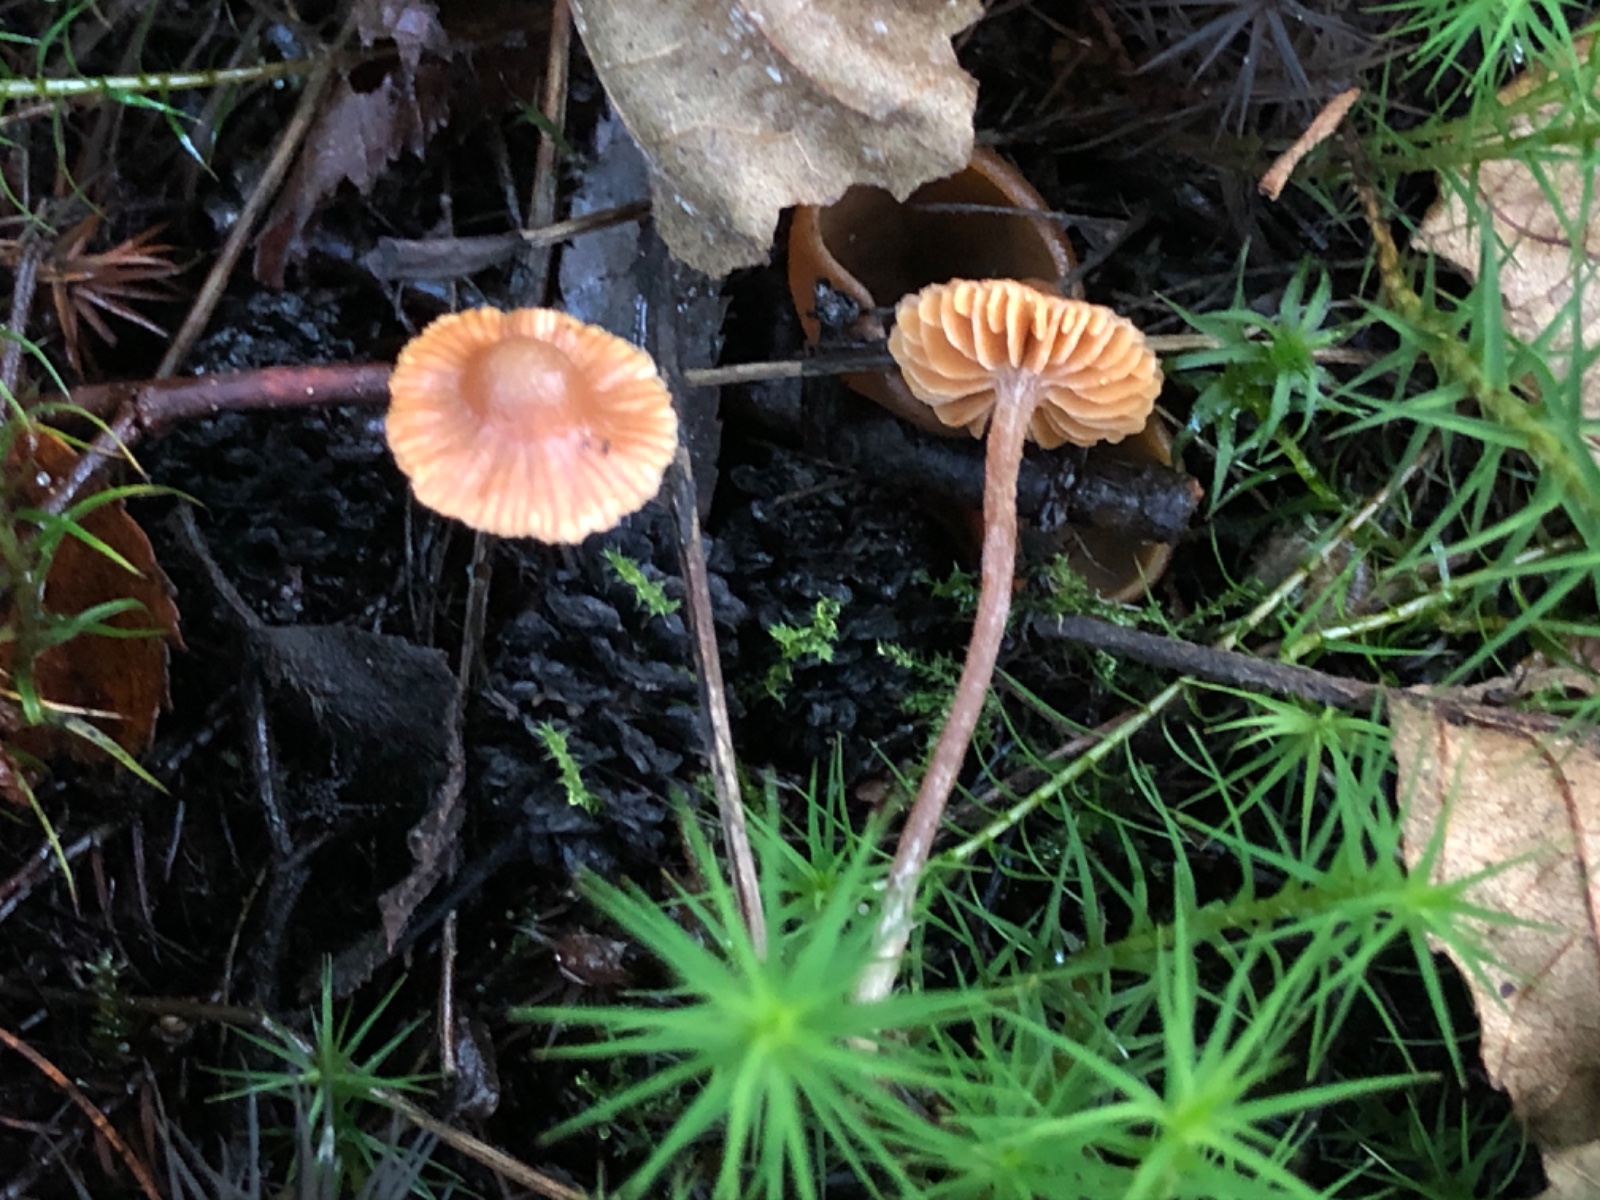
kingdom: Fungi
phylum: Basidiomycota
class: Agaricomycetes
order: Agaricales
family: Hymenogastraceae
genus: Galerina
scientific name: Galerina cinctula
